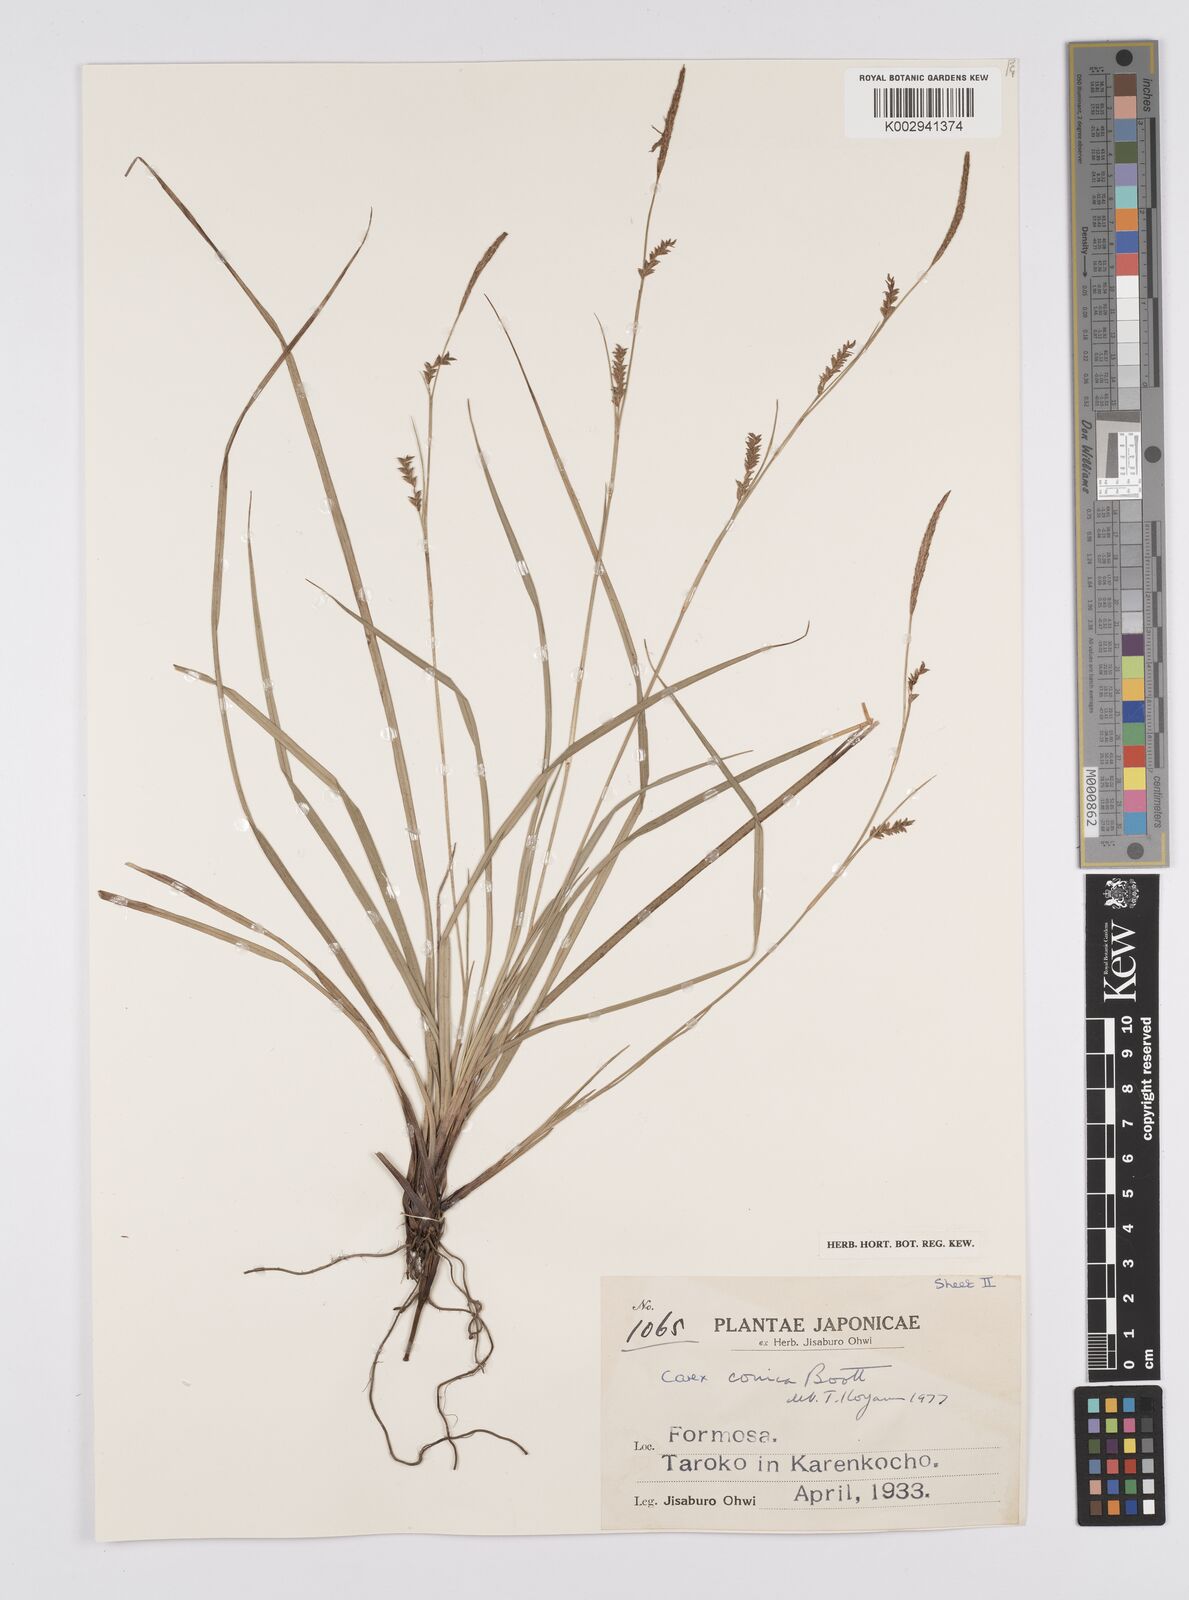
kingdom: Plantae
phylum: Tracheophyta
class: Liliopsida
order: Poales
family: Cyperaceae
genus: Carex
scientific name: Carex conica
